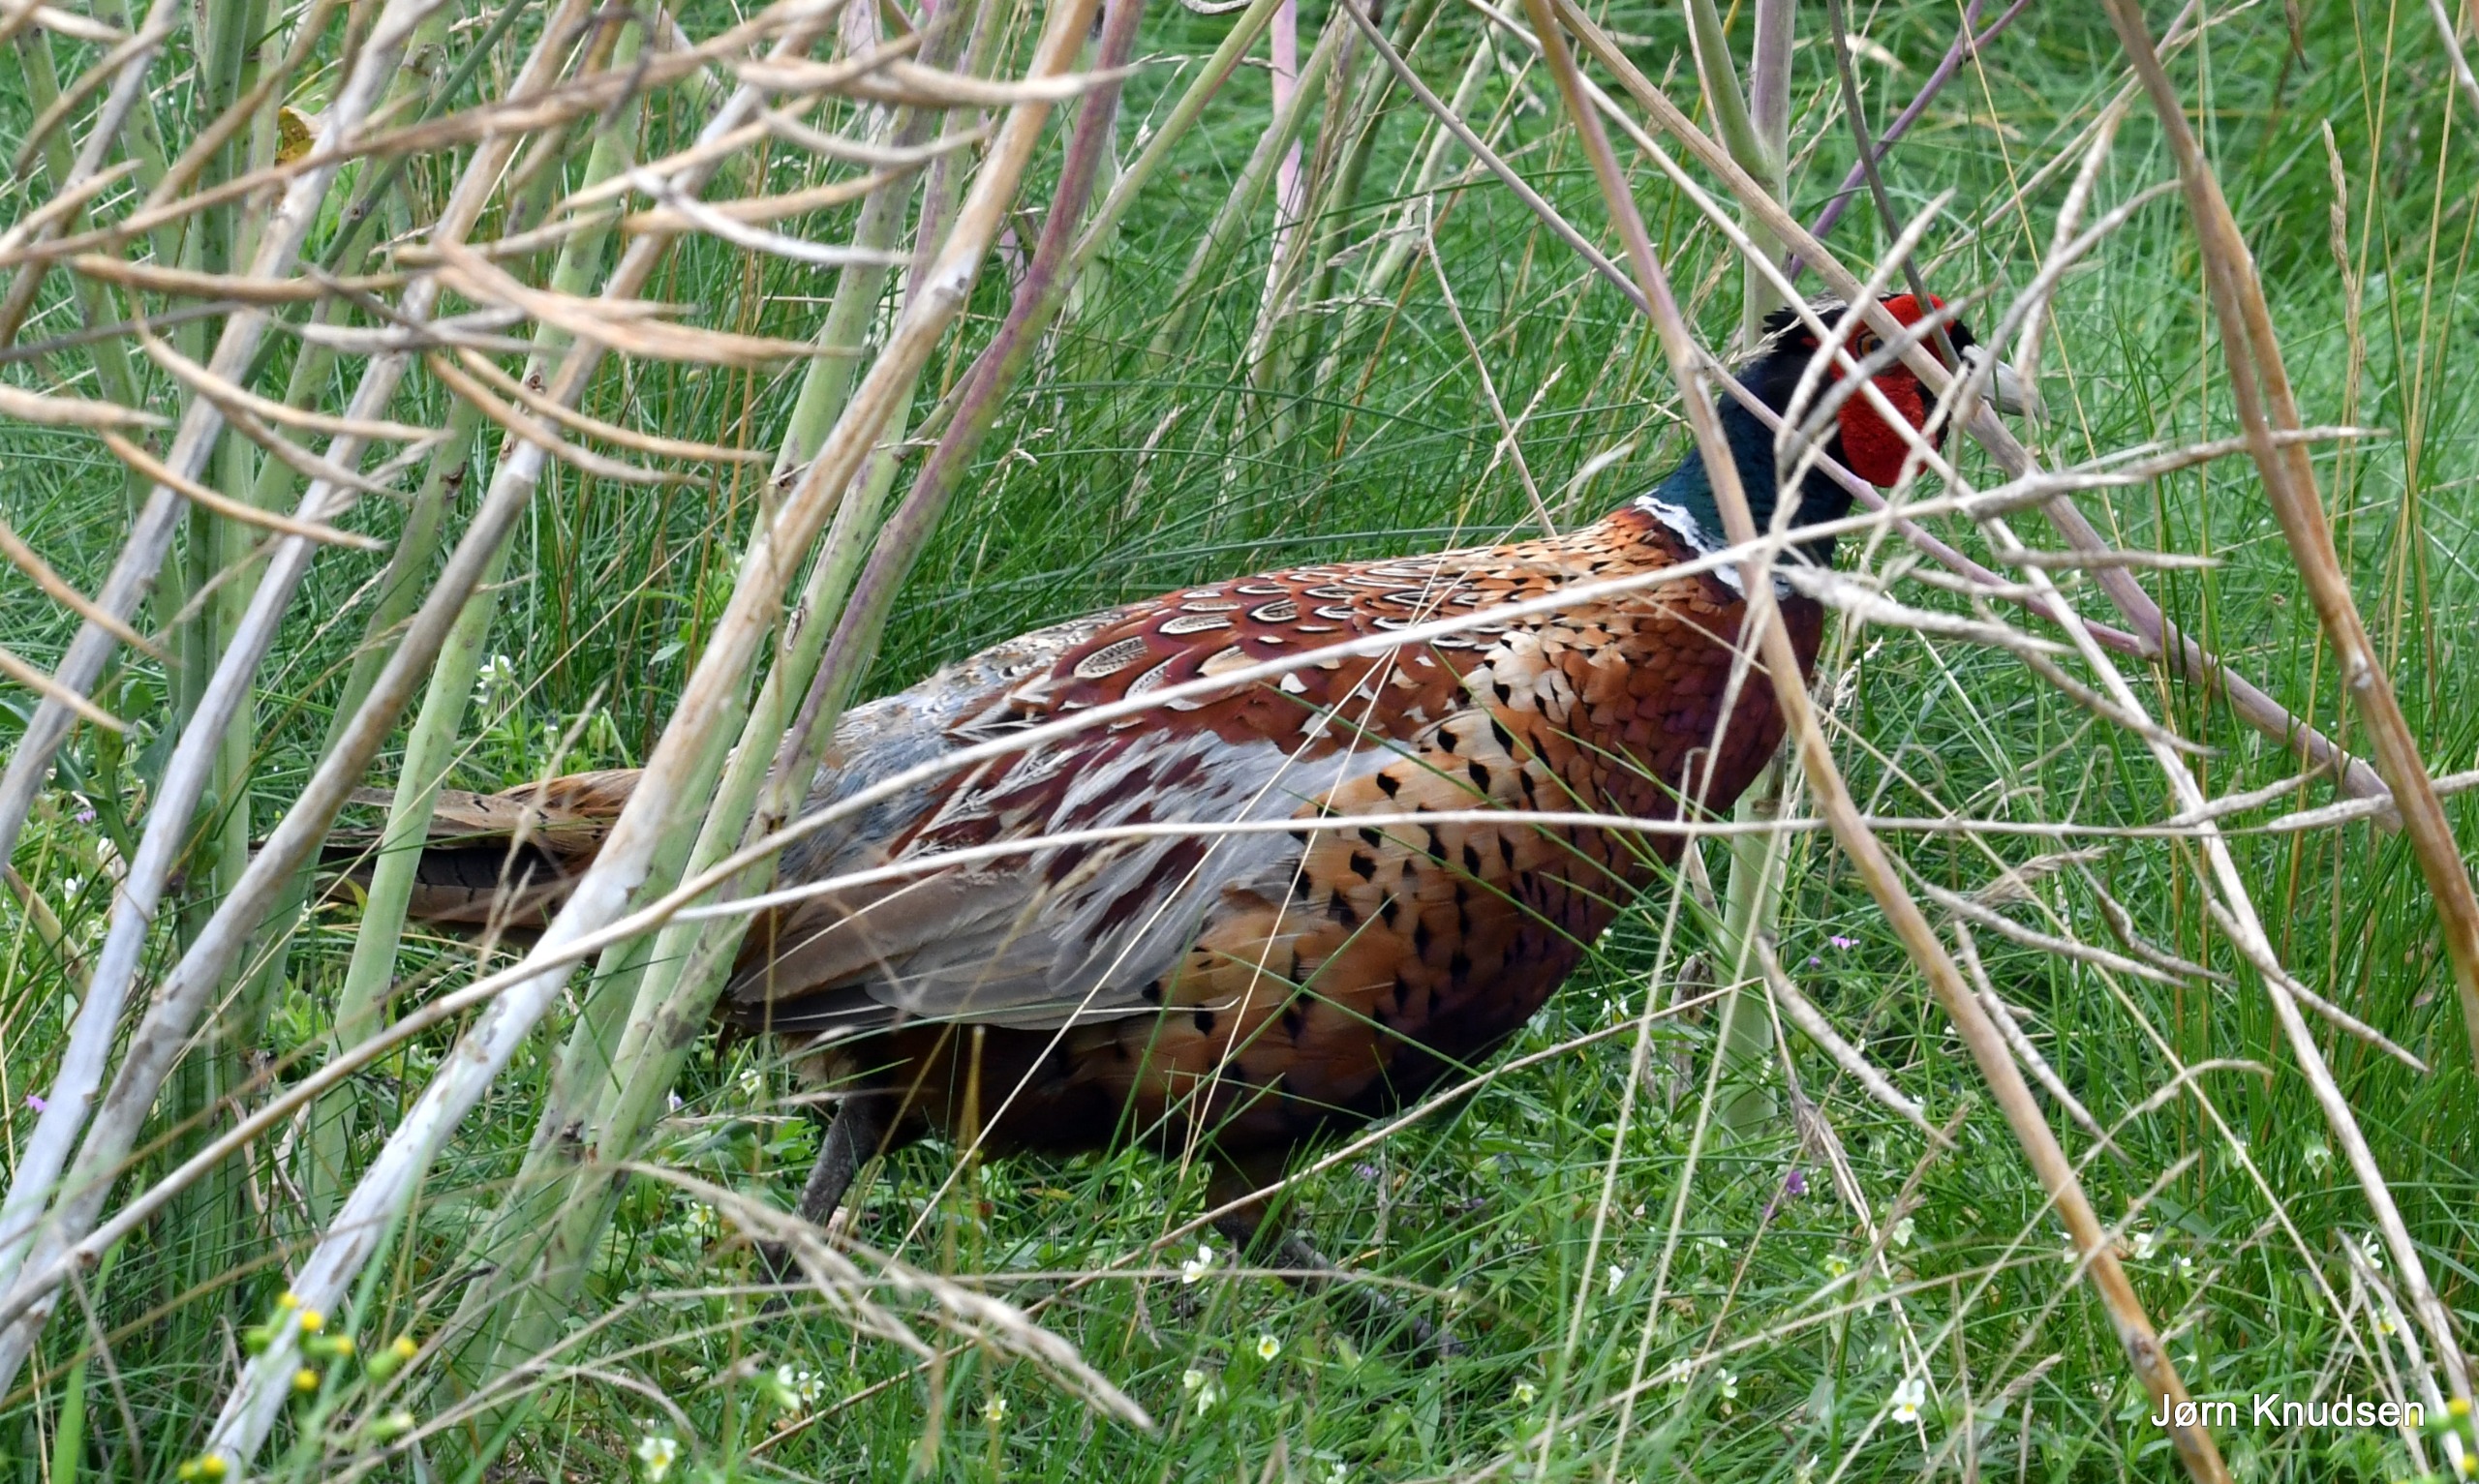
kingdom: Animalia
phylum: Chordata
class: Aves
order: Galliformes
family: Phasianidae
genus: Phasianus
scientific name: Phasianus colchicus
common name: Fasan
